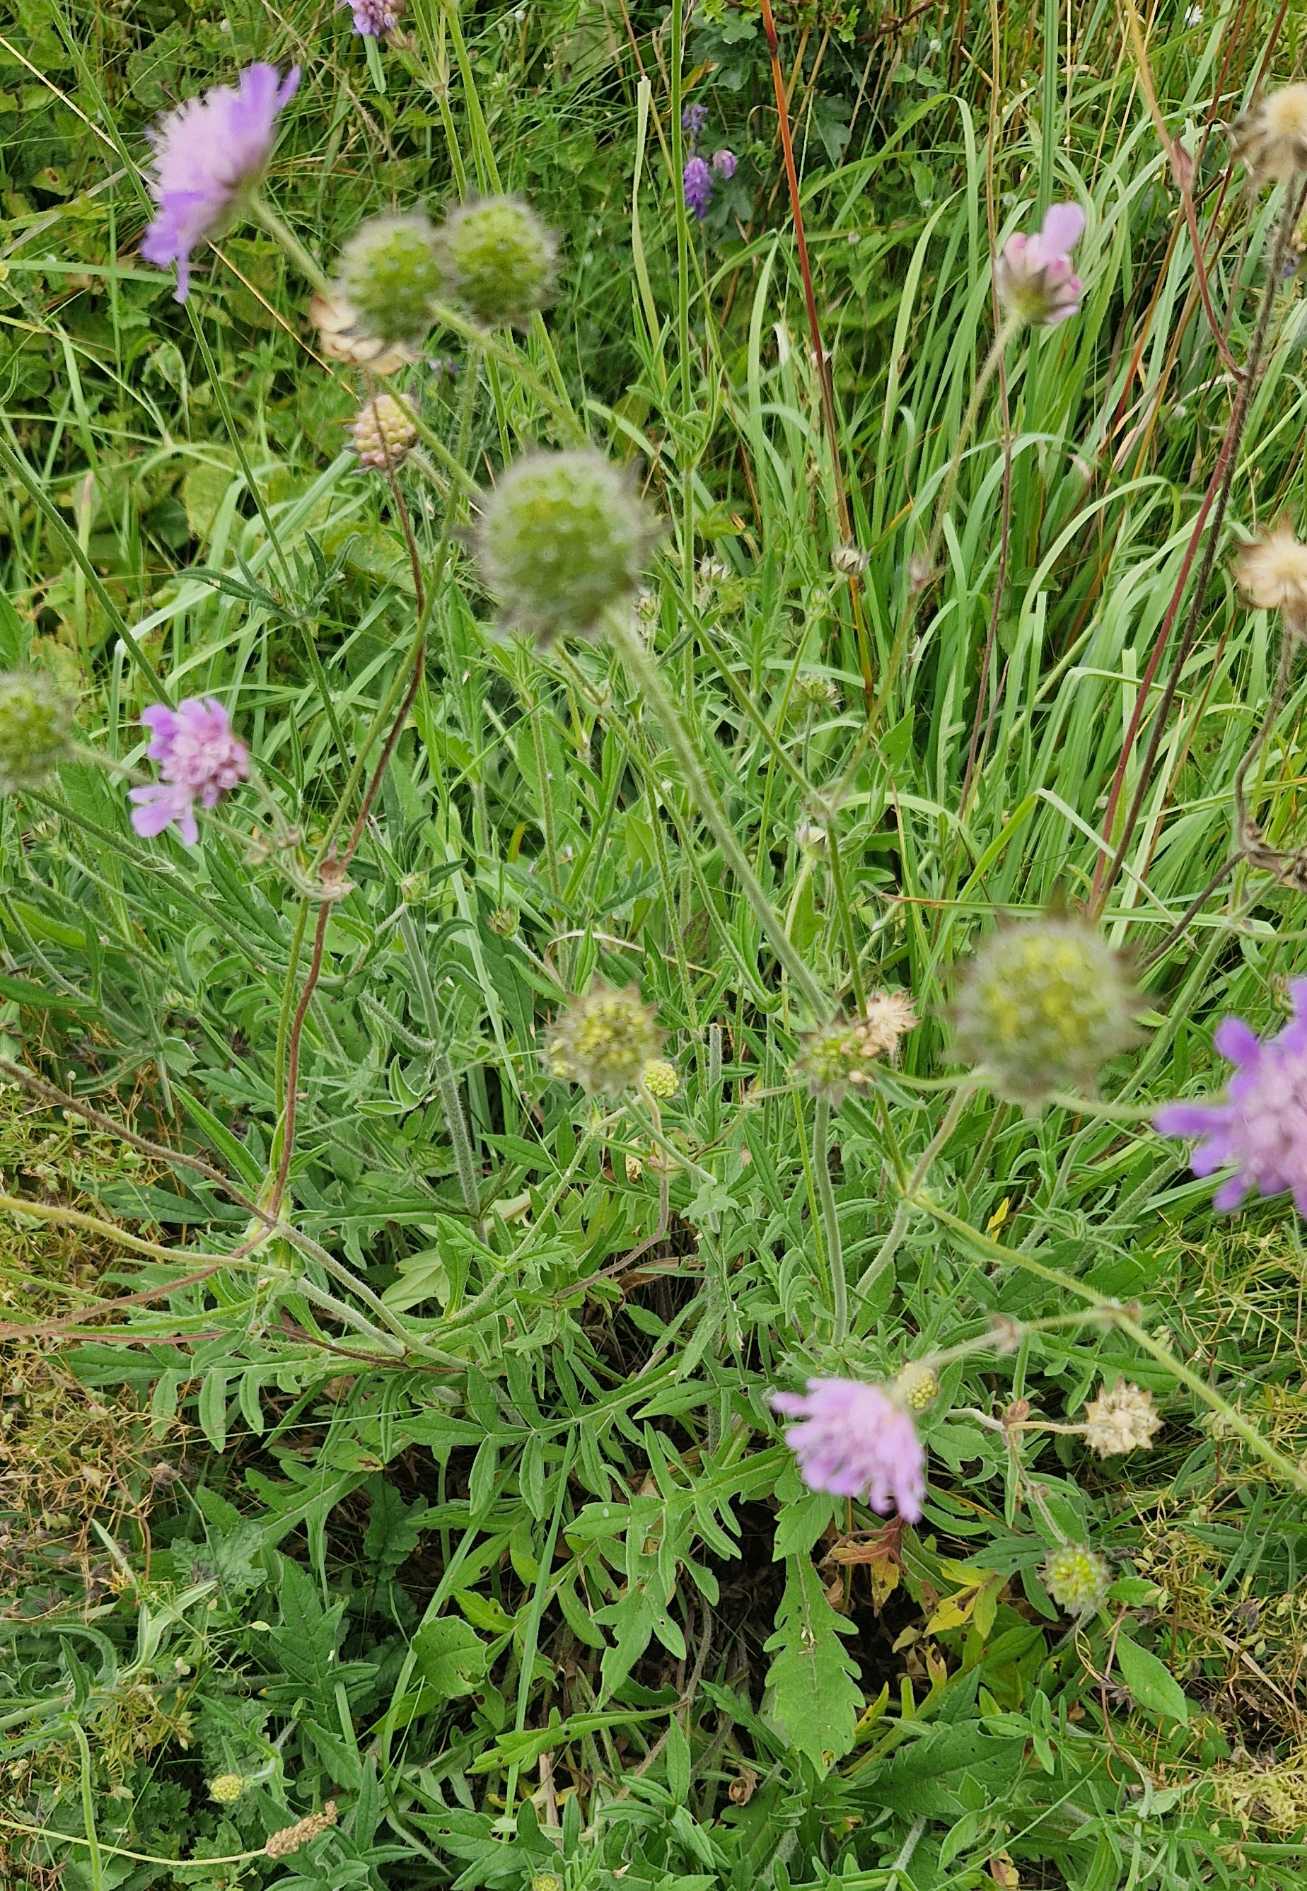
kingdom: Plantae
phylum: Tracheophyta
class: Magnoliopsida
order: Dipsacales
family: Caprifoliaceae
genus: Knautia
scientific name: Knautia arvensis
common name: Blåhat
